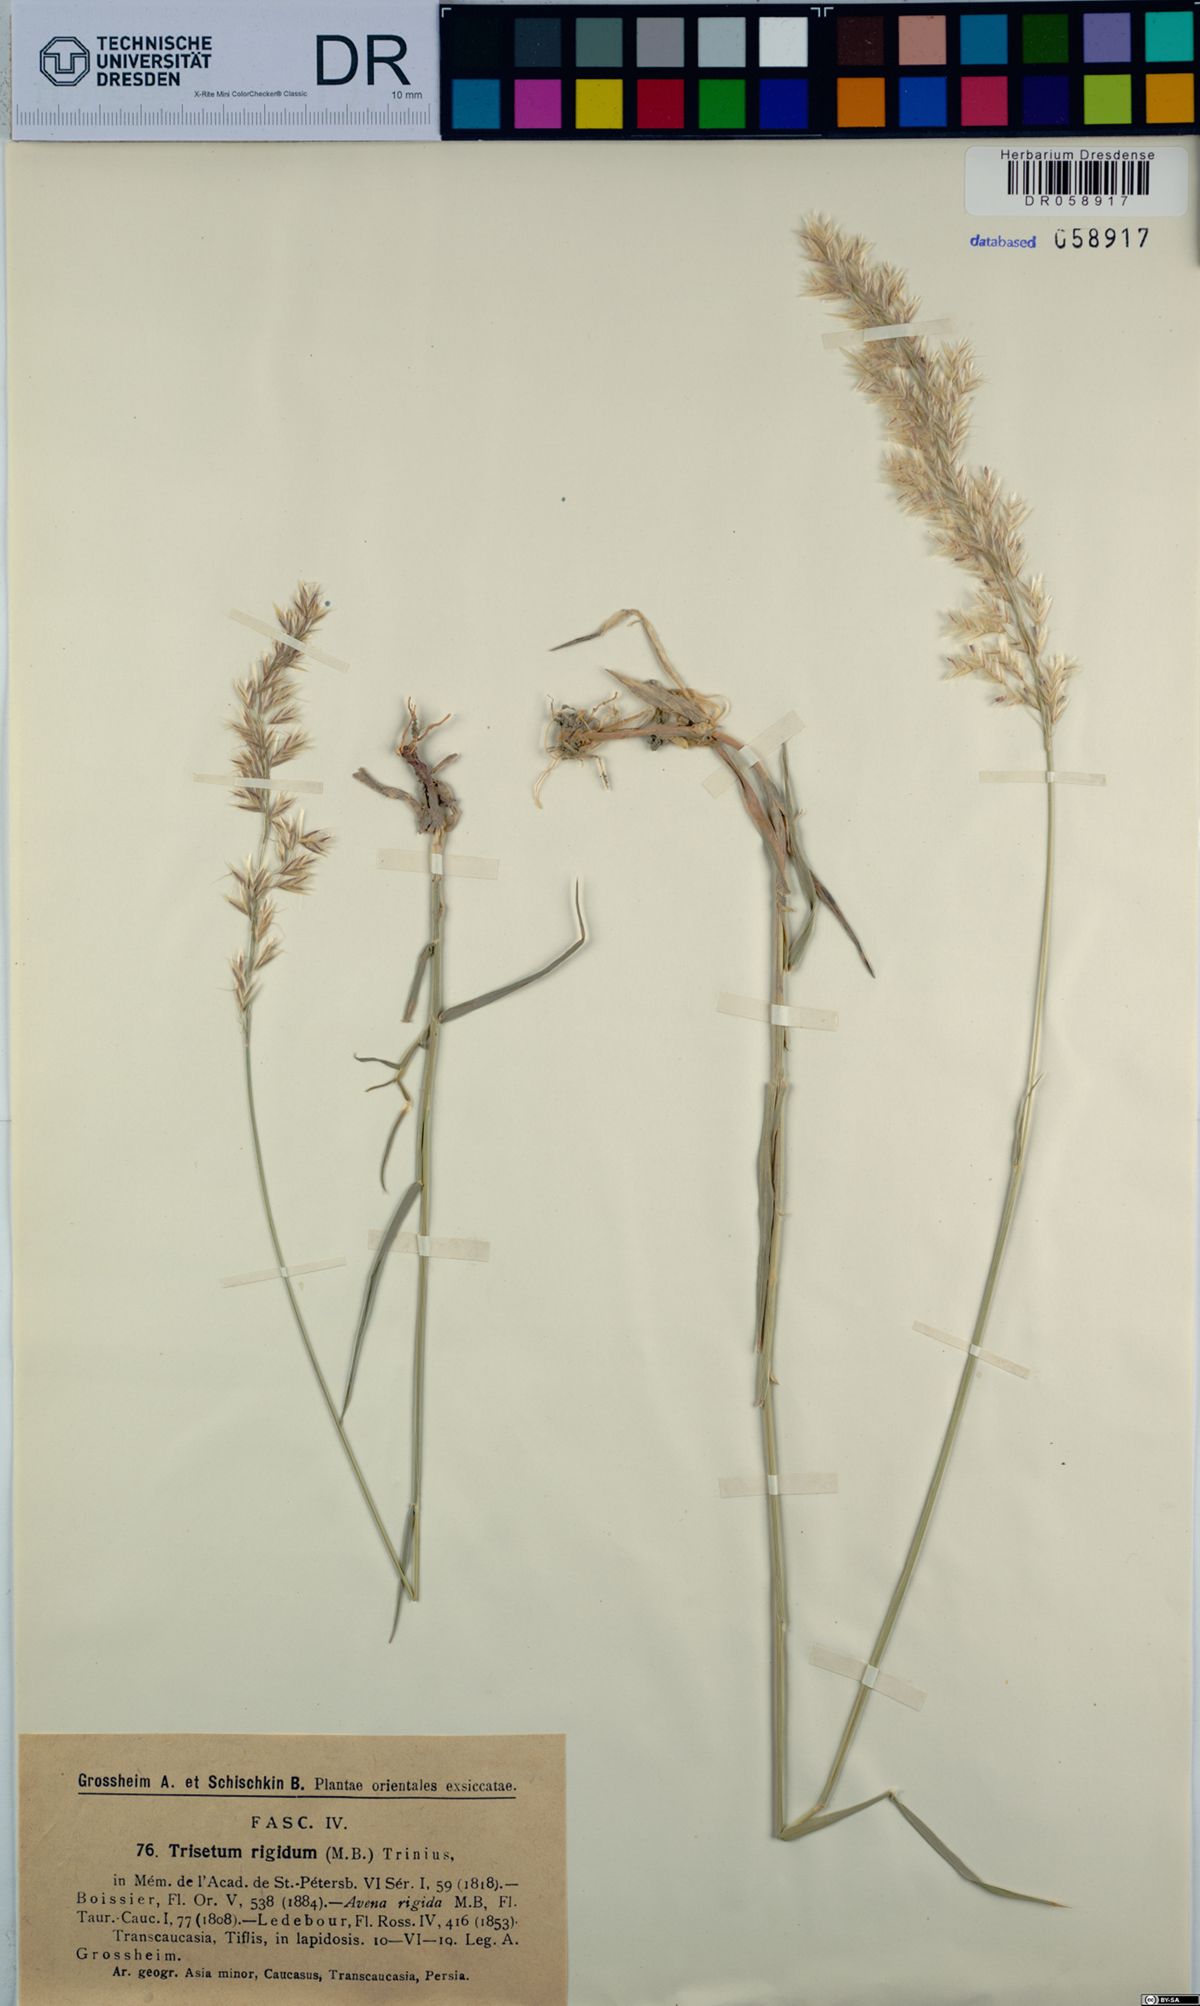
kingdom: Plantae
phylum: Tracheophyta
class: Liliopsida
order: Poales
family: Poaceae
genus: Trisetum
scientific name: Trisetum rigidum
